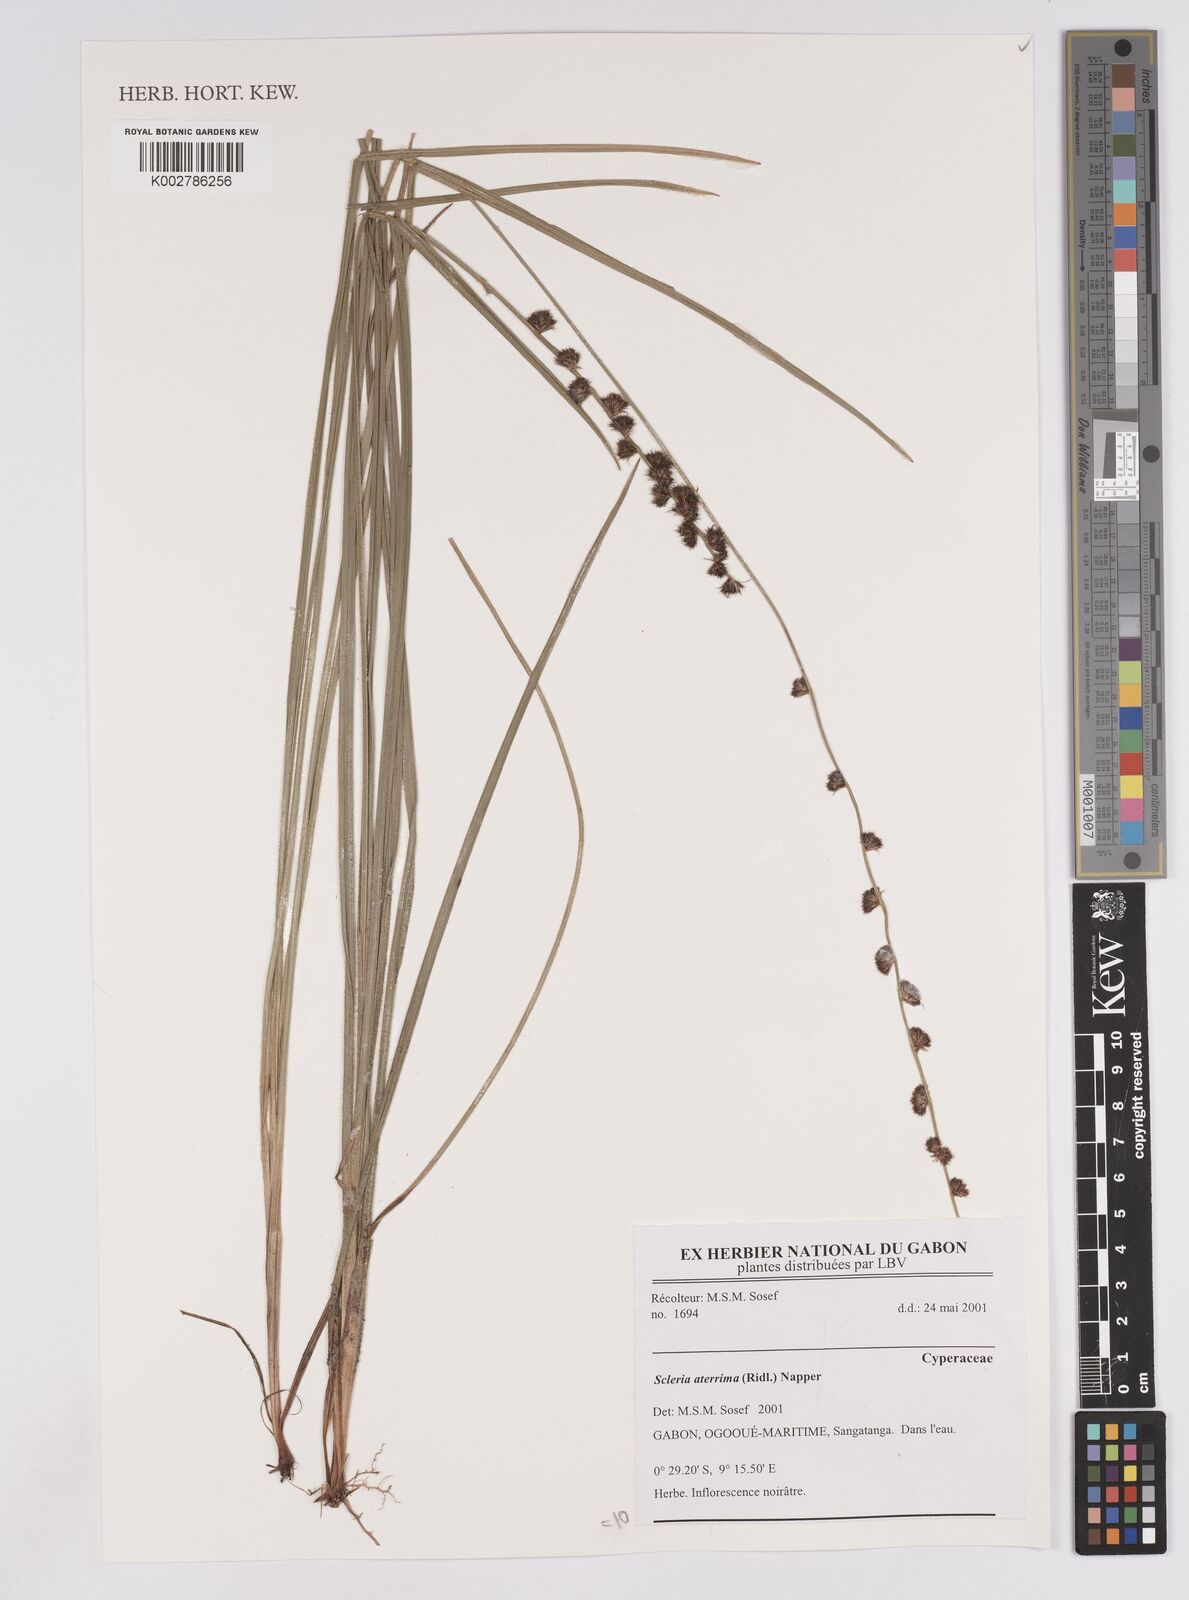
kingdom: Plantae
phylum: Tracheophyta
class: Liliopsida
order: Poales
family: Cyperaceae
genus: Scleria
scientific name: Scleria catophylla
